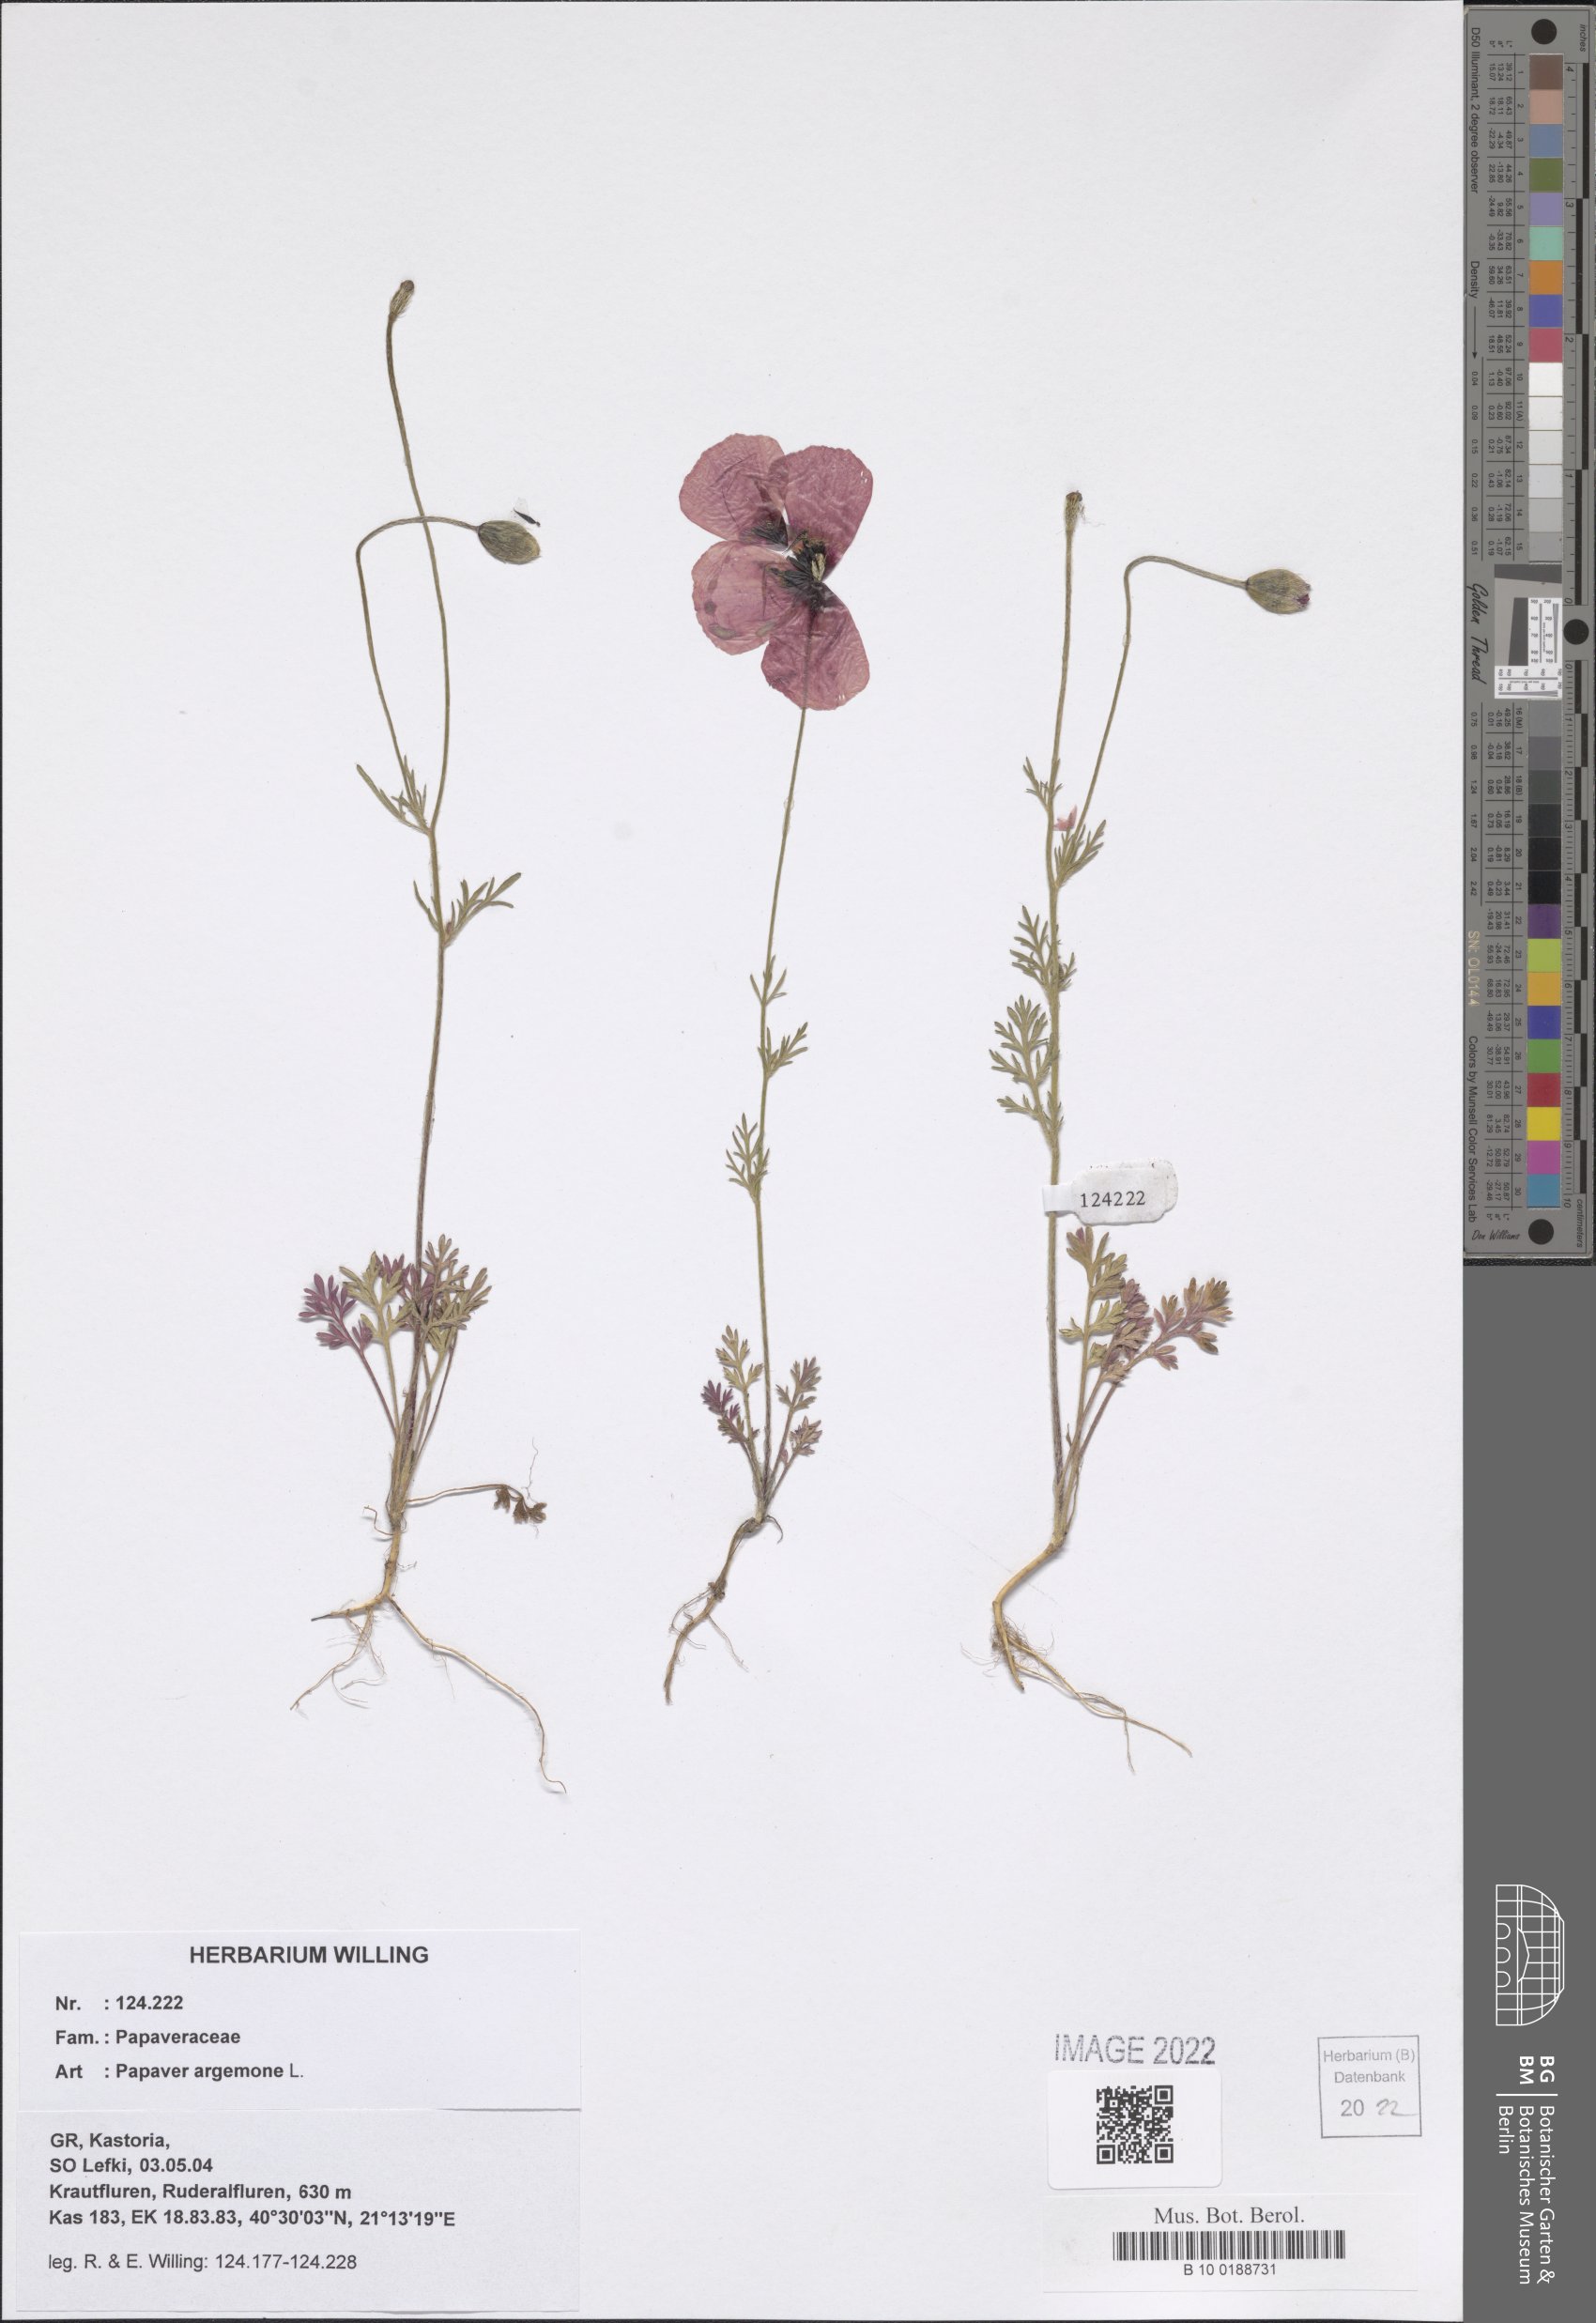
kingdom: Plantae
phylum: Tracheophyta
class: Magnoliopsida
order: Ranunculales
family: Papaveraceae
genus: Roemeria
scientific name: Roemeria argemone
